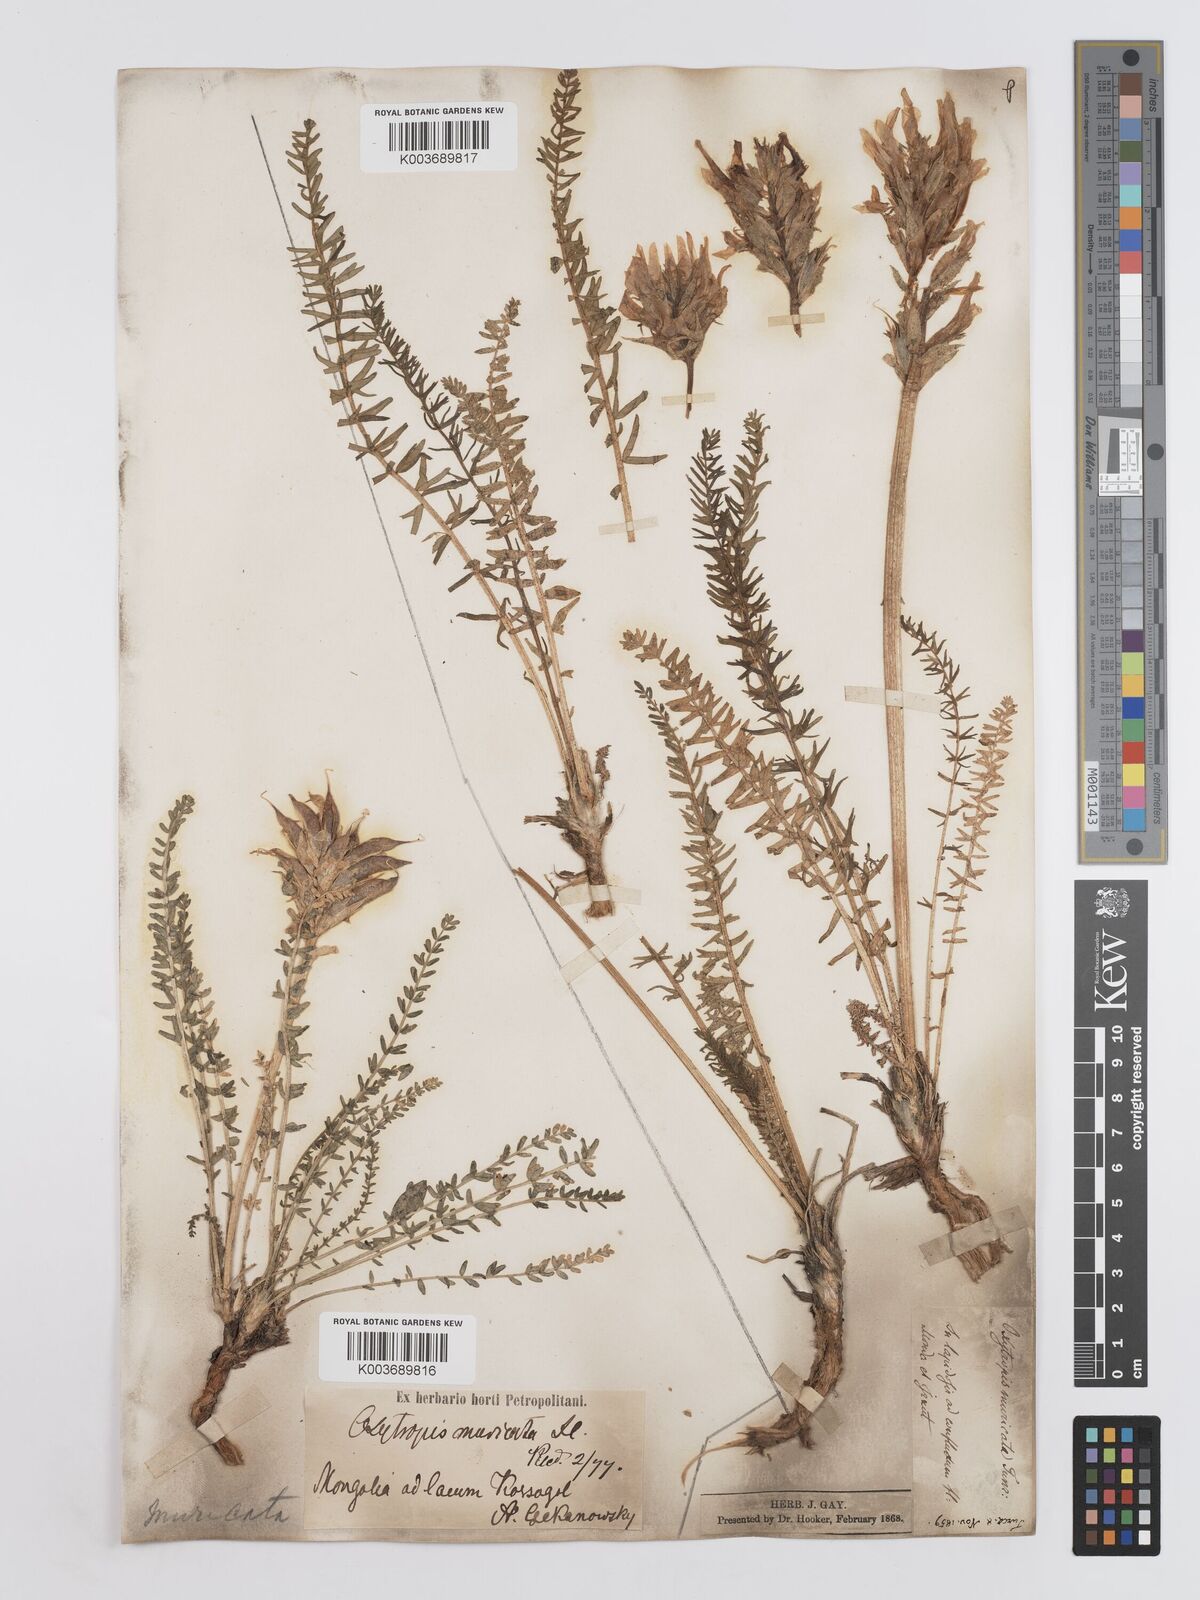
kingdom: Plantae
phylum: Tracheophyta
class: Magnoliopsida
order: Fabales
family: Fabaceae
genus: Oxytropis
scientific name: Oxytropis muricata
